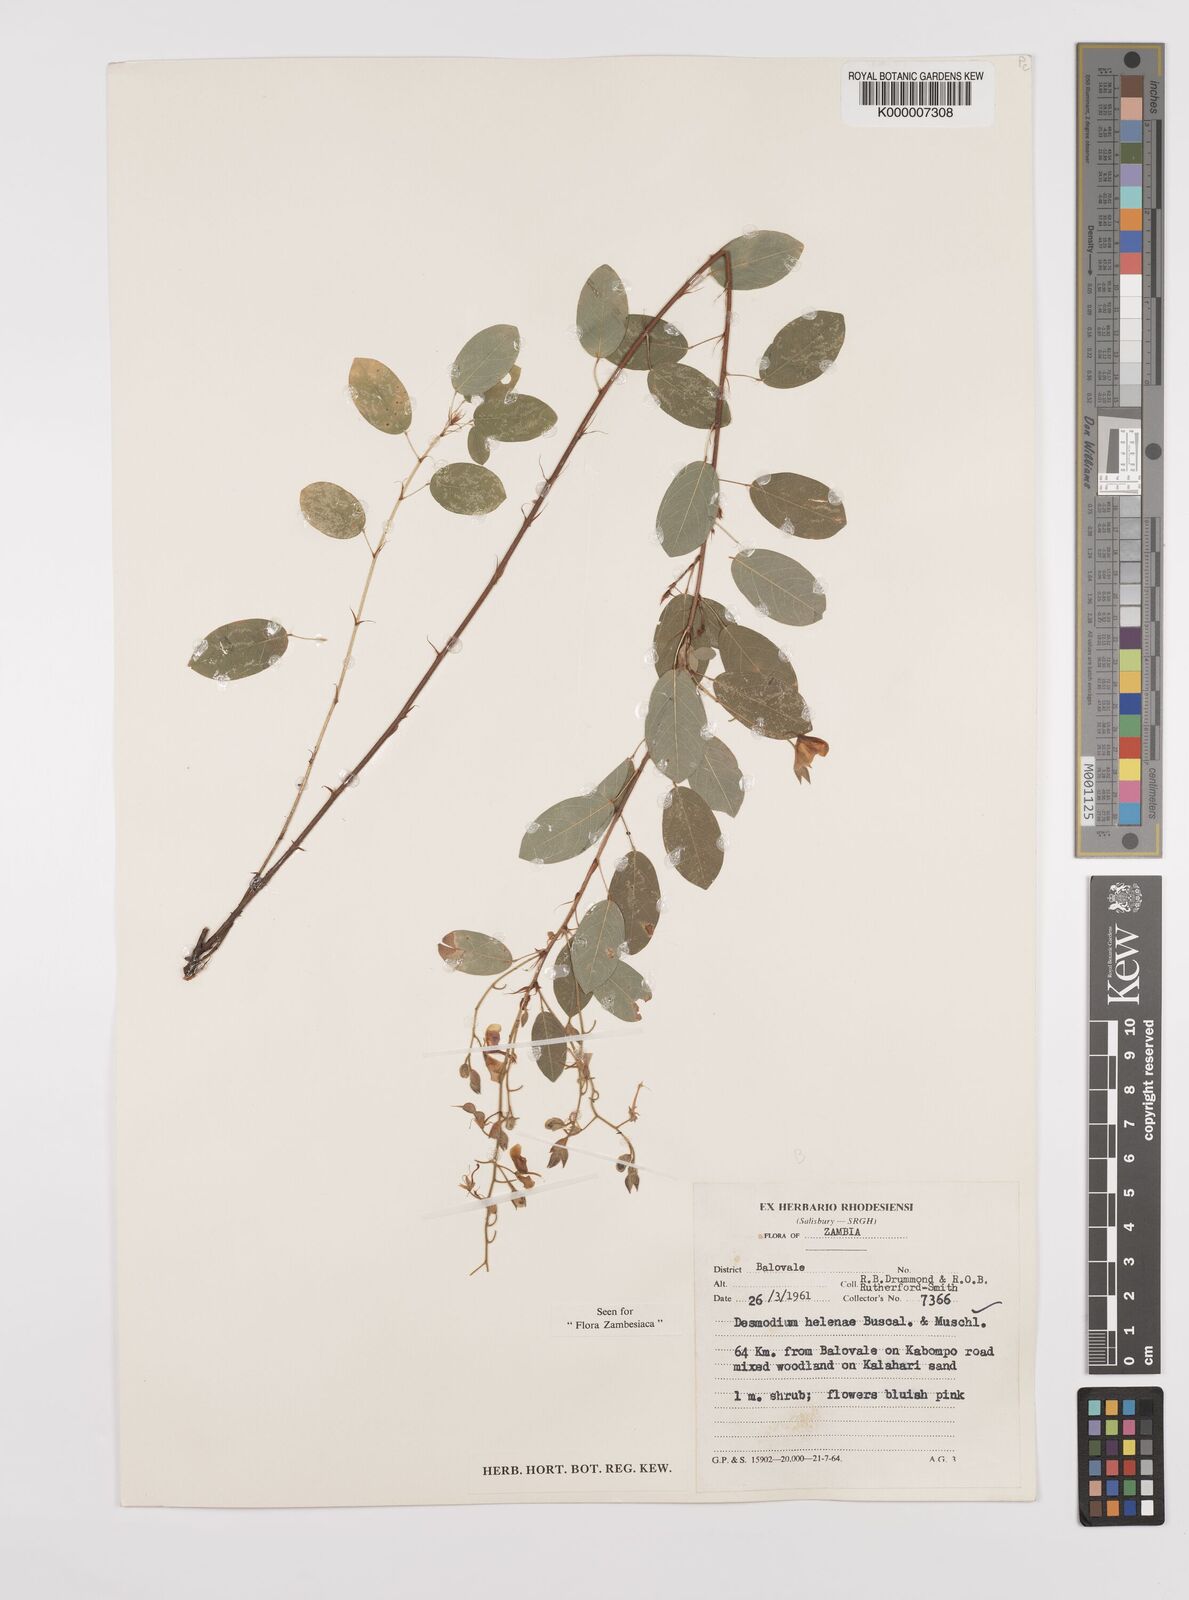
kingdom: Plantae
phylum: Tracheophyta
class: Magnoliopsida
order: Fabales
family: Fabaceae
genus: Grona
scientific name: Grona helenae
